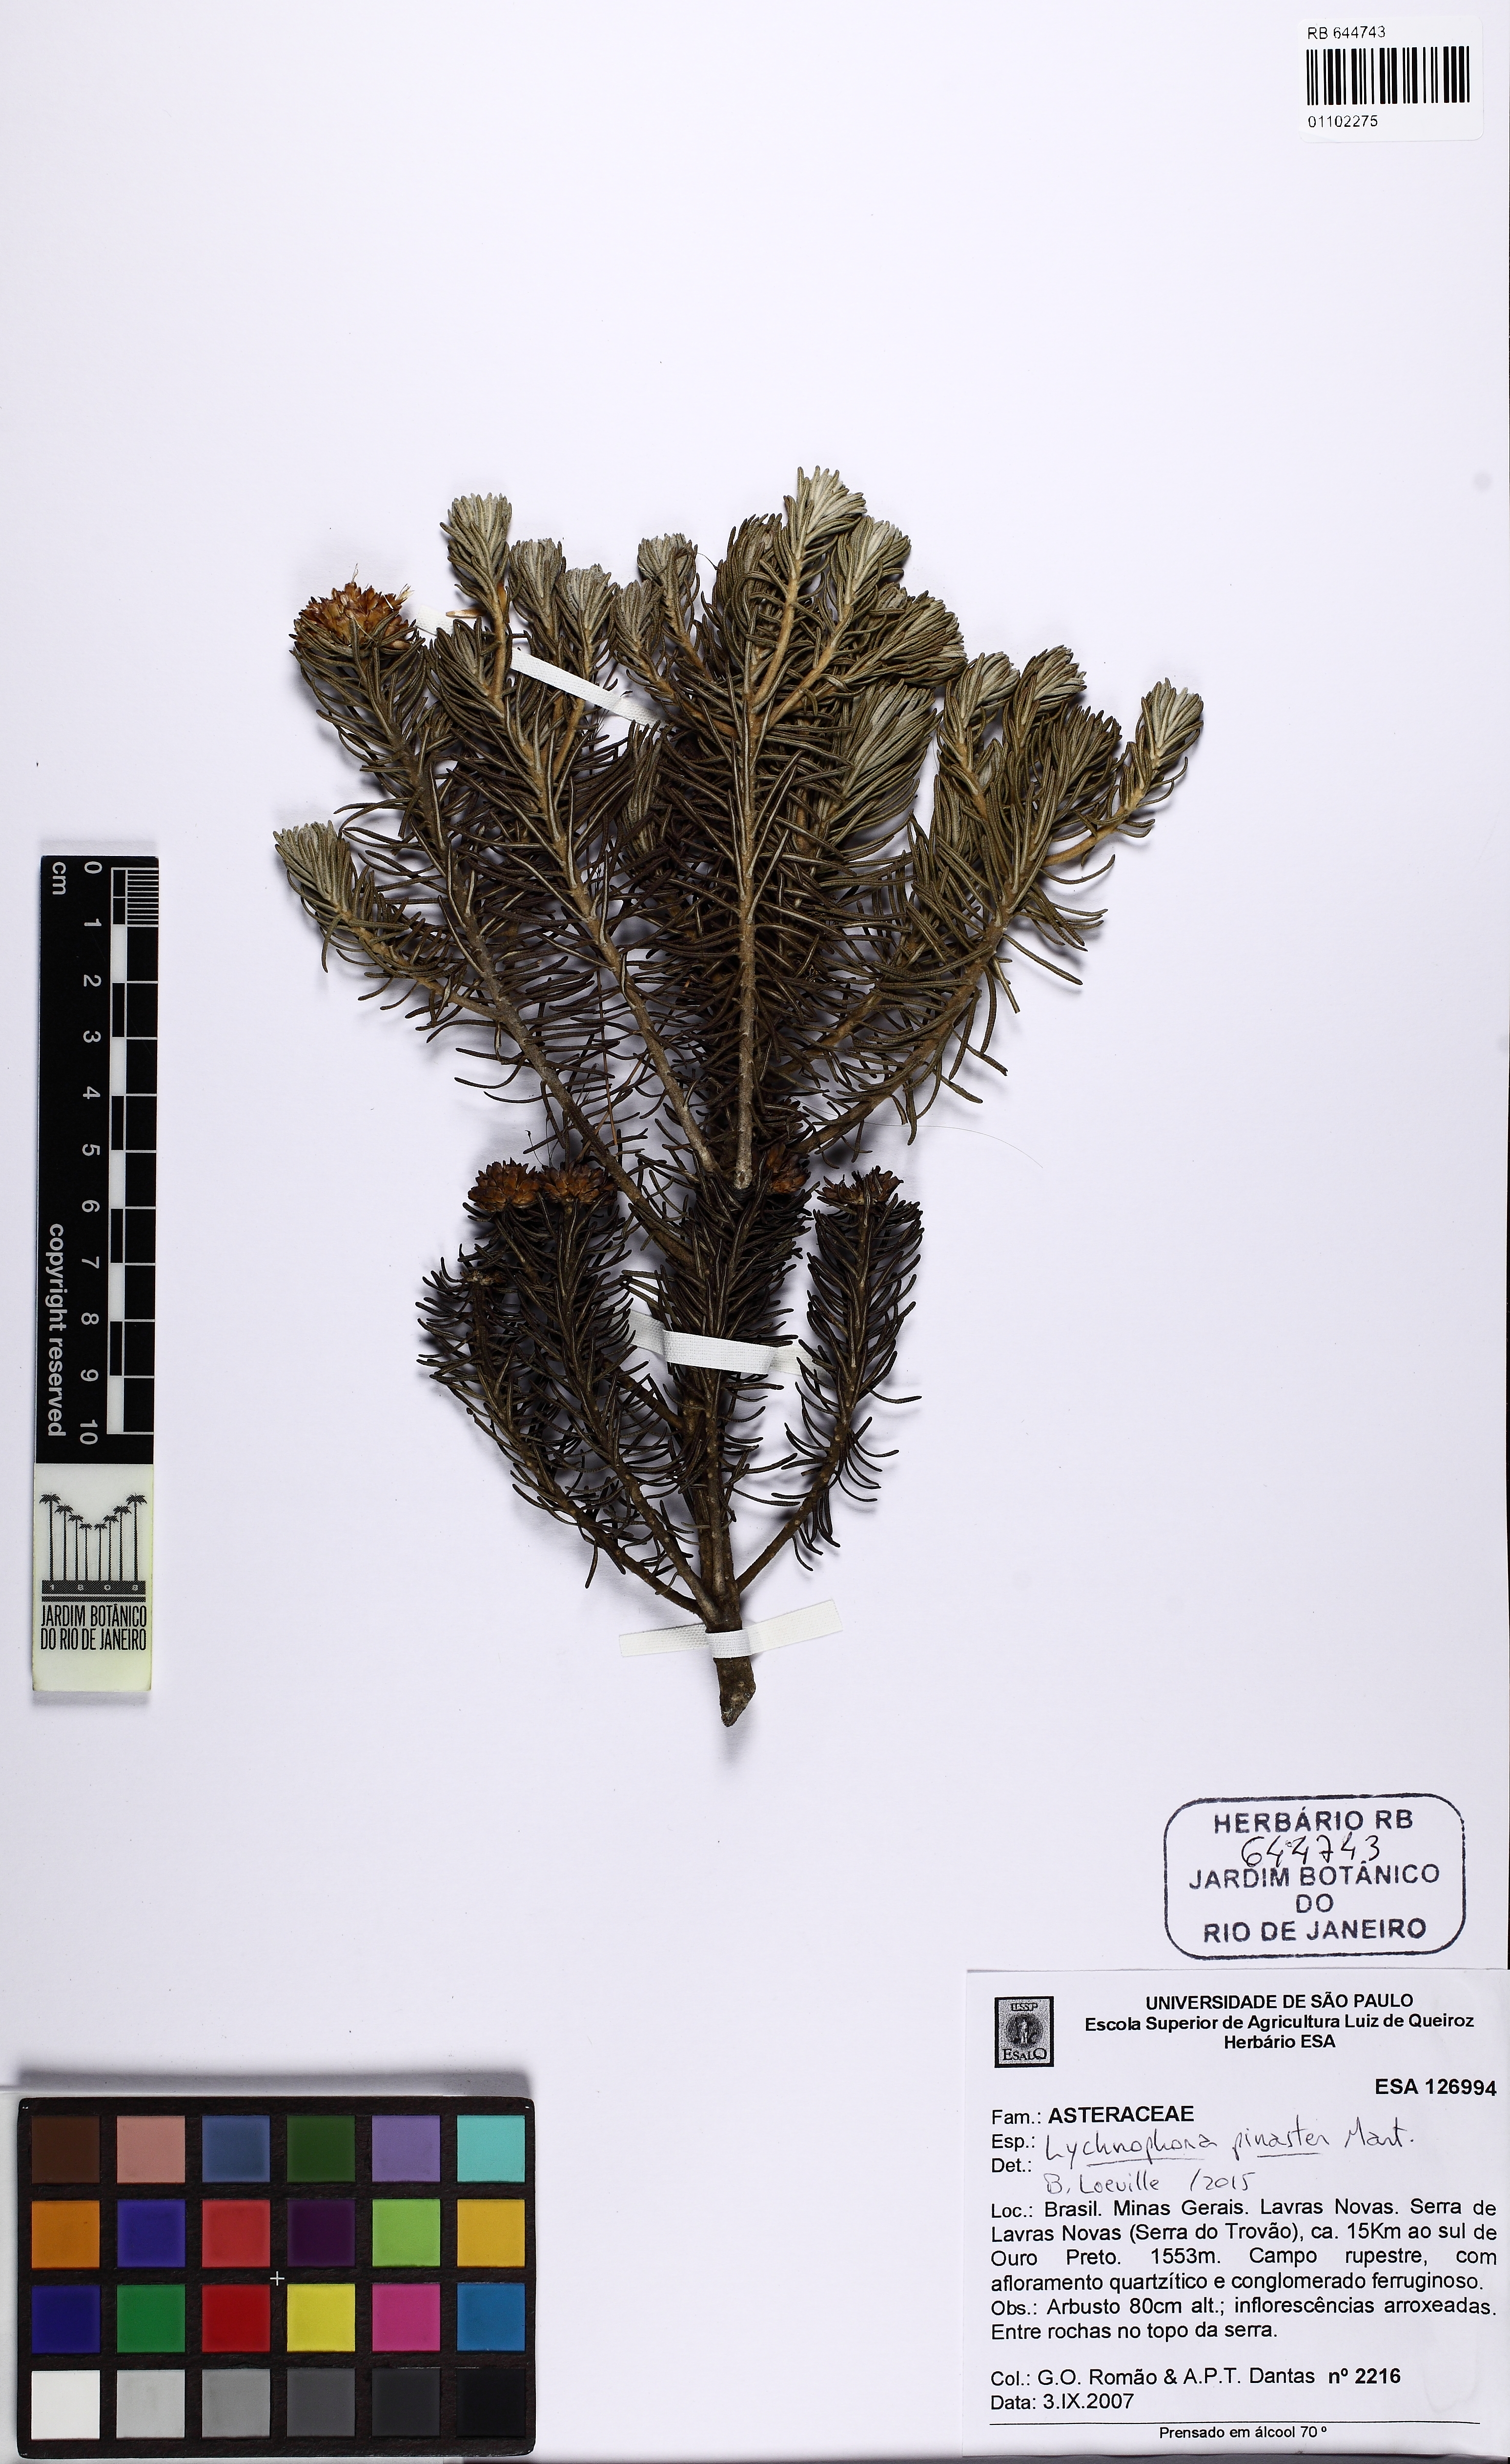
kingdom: Plantae
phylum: Tracheophyta
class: Magnoliopsida
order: Asterales
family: Asteraceae
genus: Lychnophora
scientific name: Lychnophora pinaster
